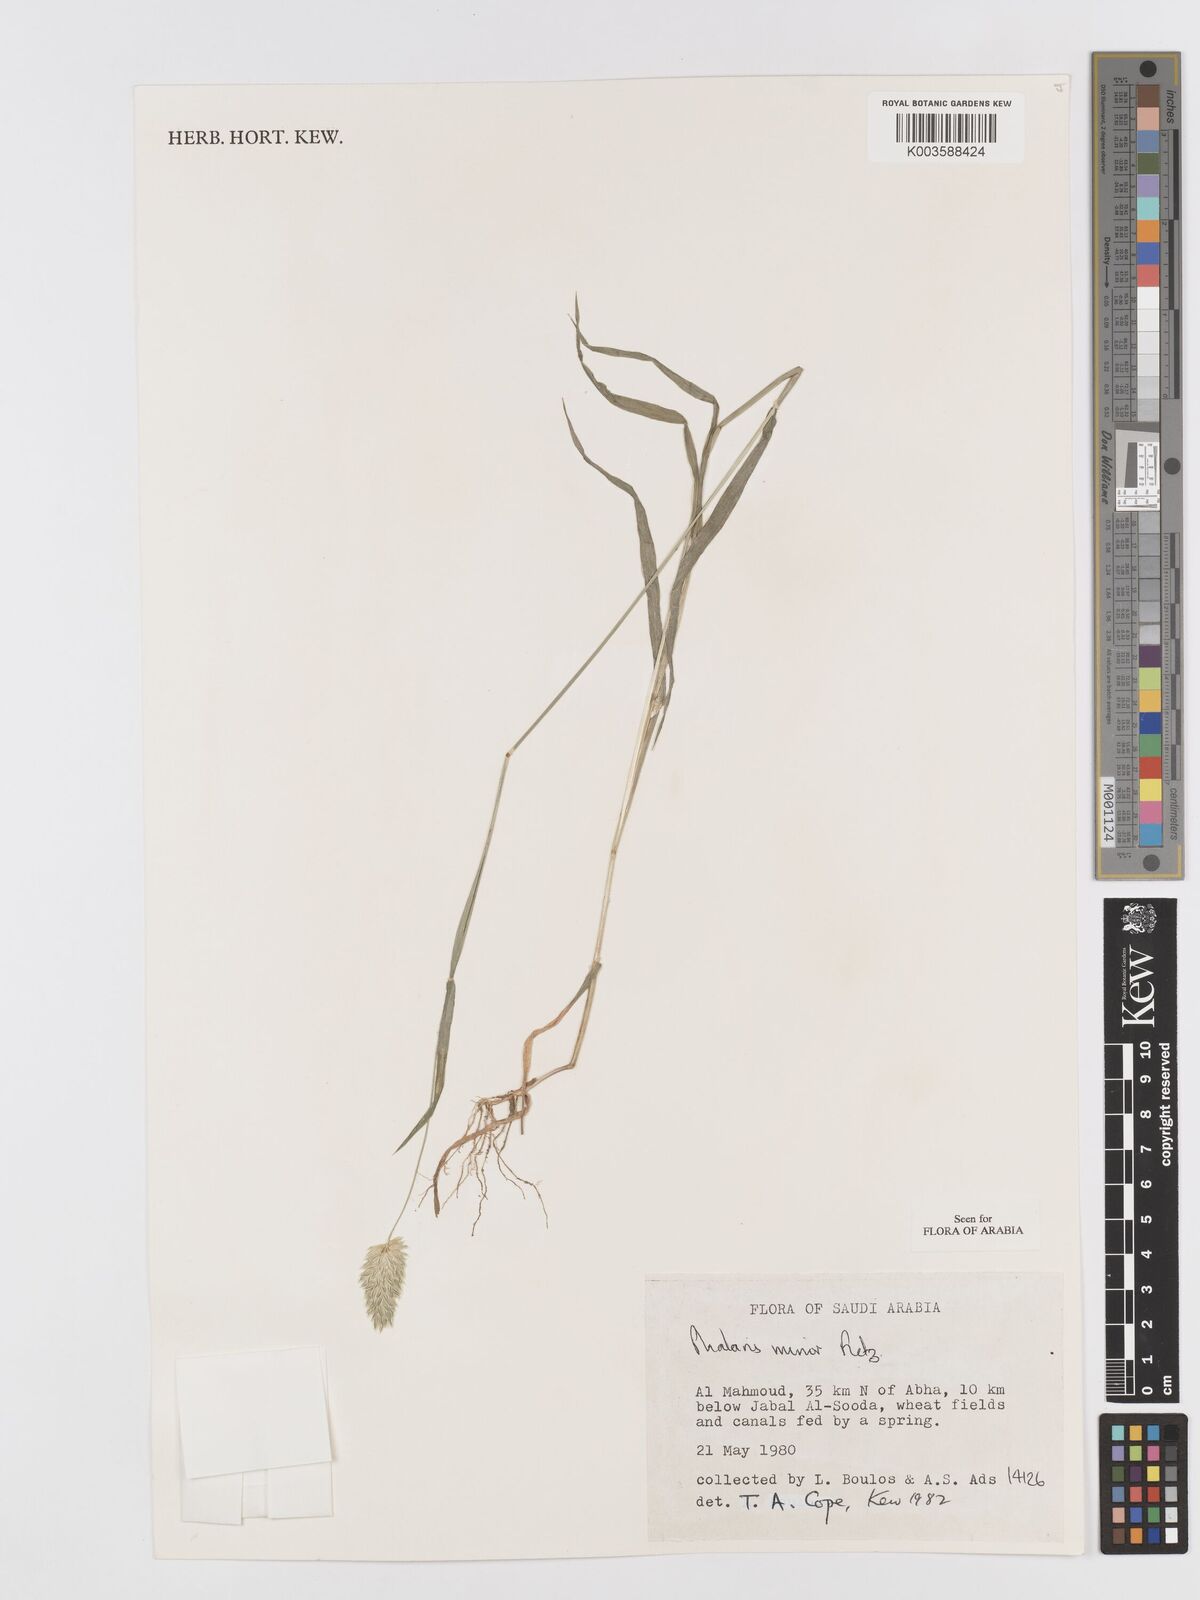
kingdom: Plantae
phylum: Tracheophyta
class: Liliopsida
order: Poales
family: Poaceae
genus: Phalaris
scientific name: Phalaris minor
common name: Littleseed canarygrass
